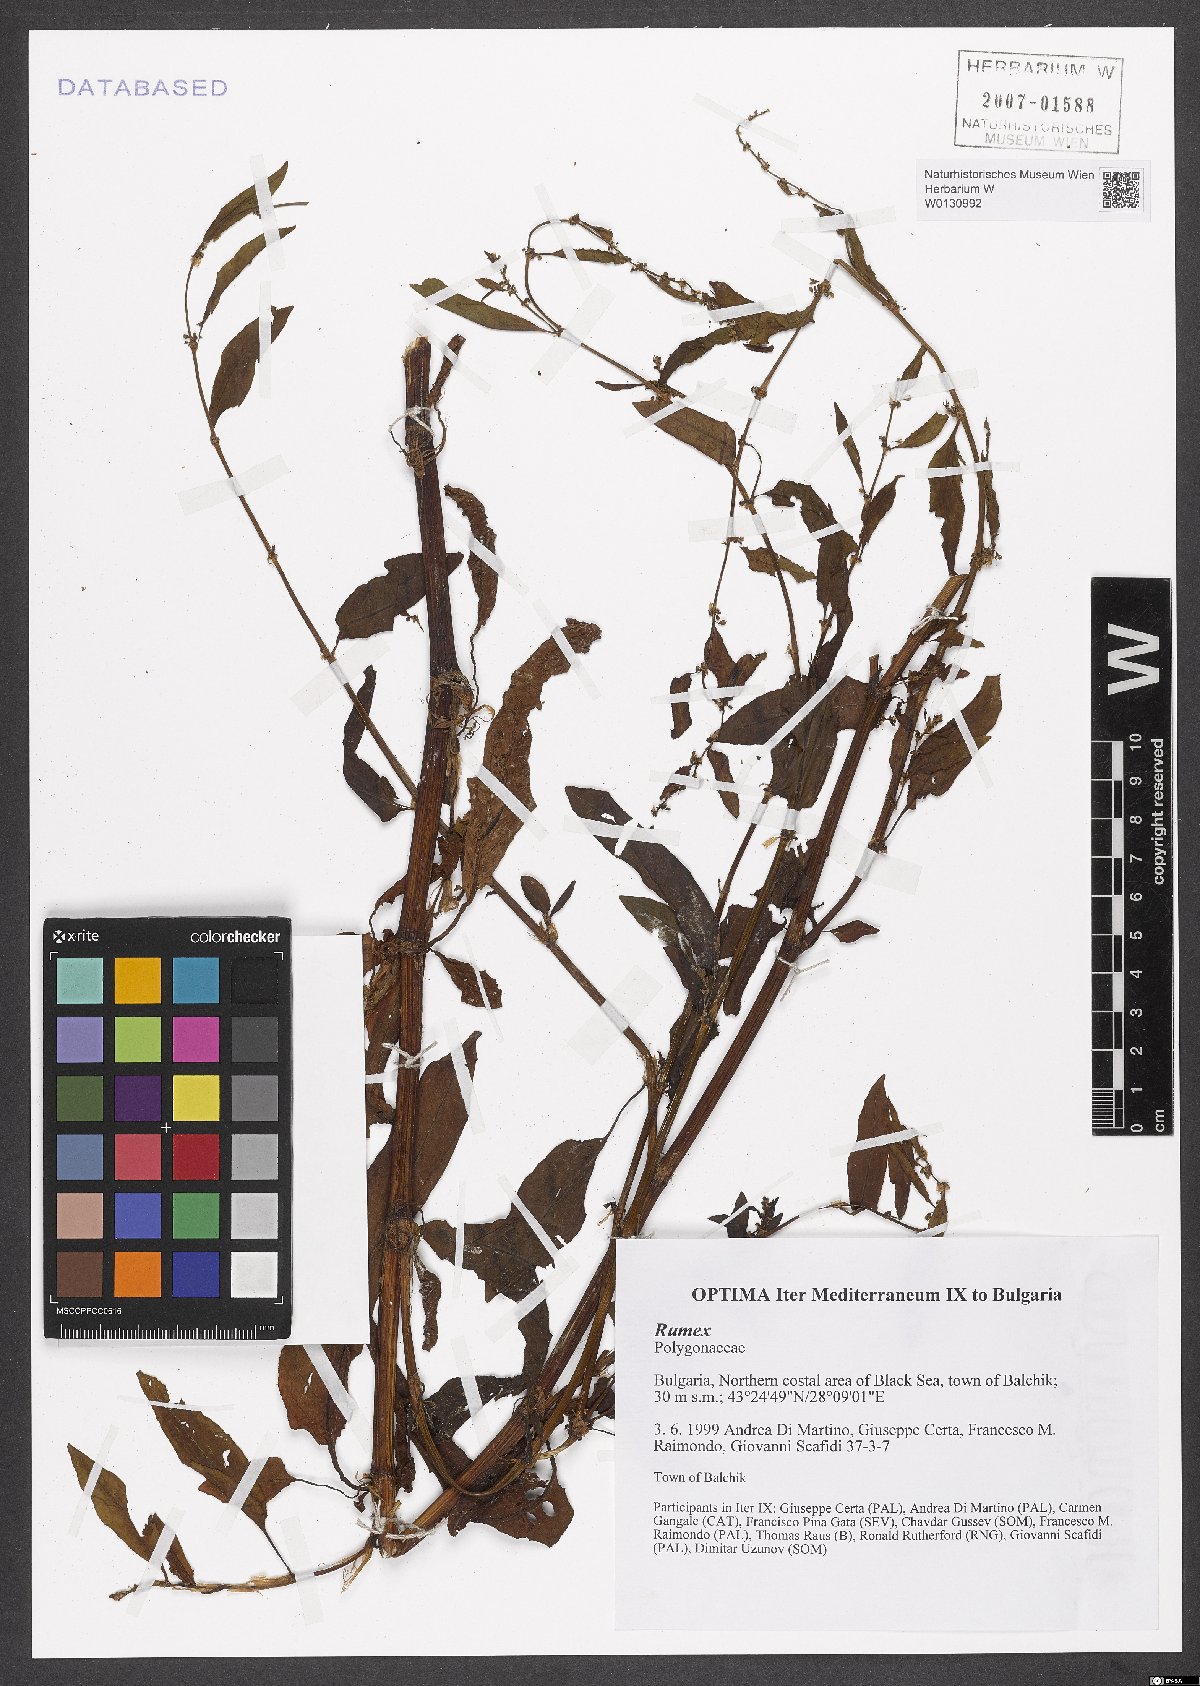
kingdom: Plantae
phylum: Tracheophyta
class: Magnoliopsida
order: Caryophyllales
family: Polygonaceae
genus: Rumex
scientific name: Rumex
